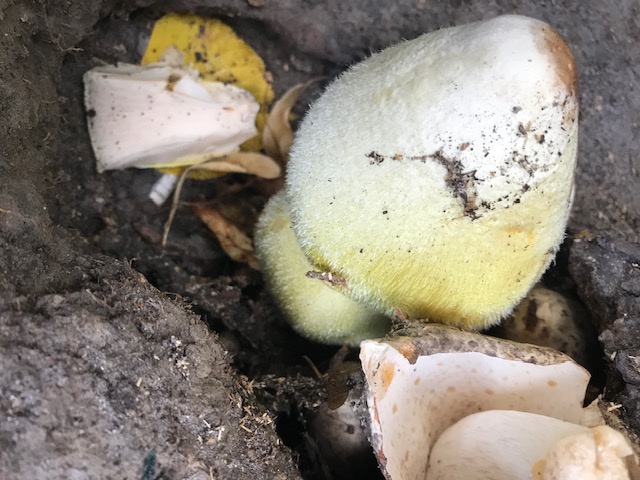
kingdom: Fungi
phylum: Basidiomycota
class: Agaricomycetes
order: Agaricales
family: Pluteaceae
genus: Volvariella
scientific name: Volvariella bombycina
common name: silkehåret posesvamp
